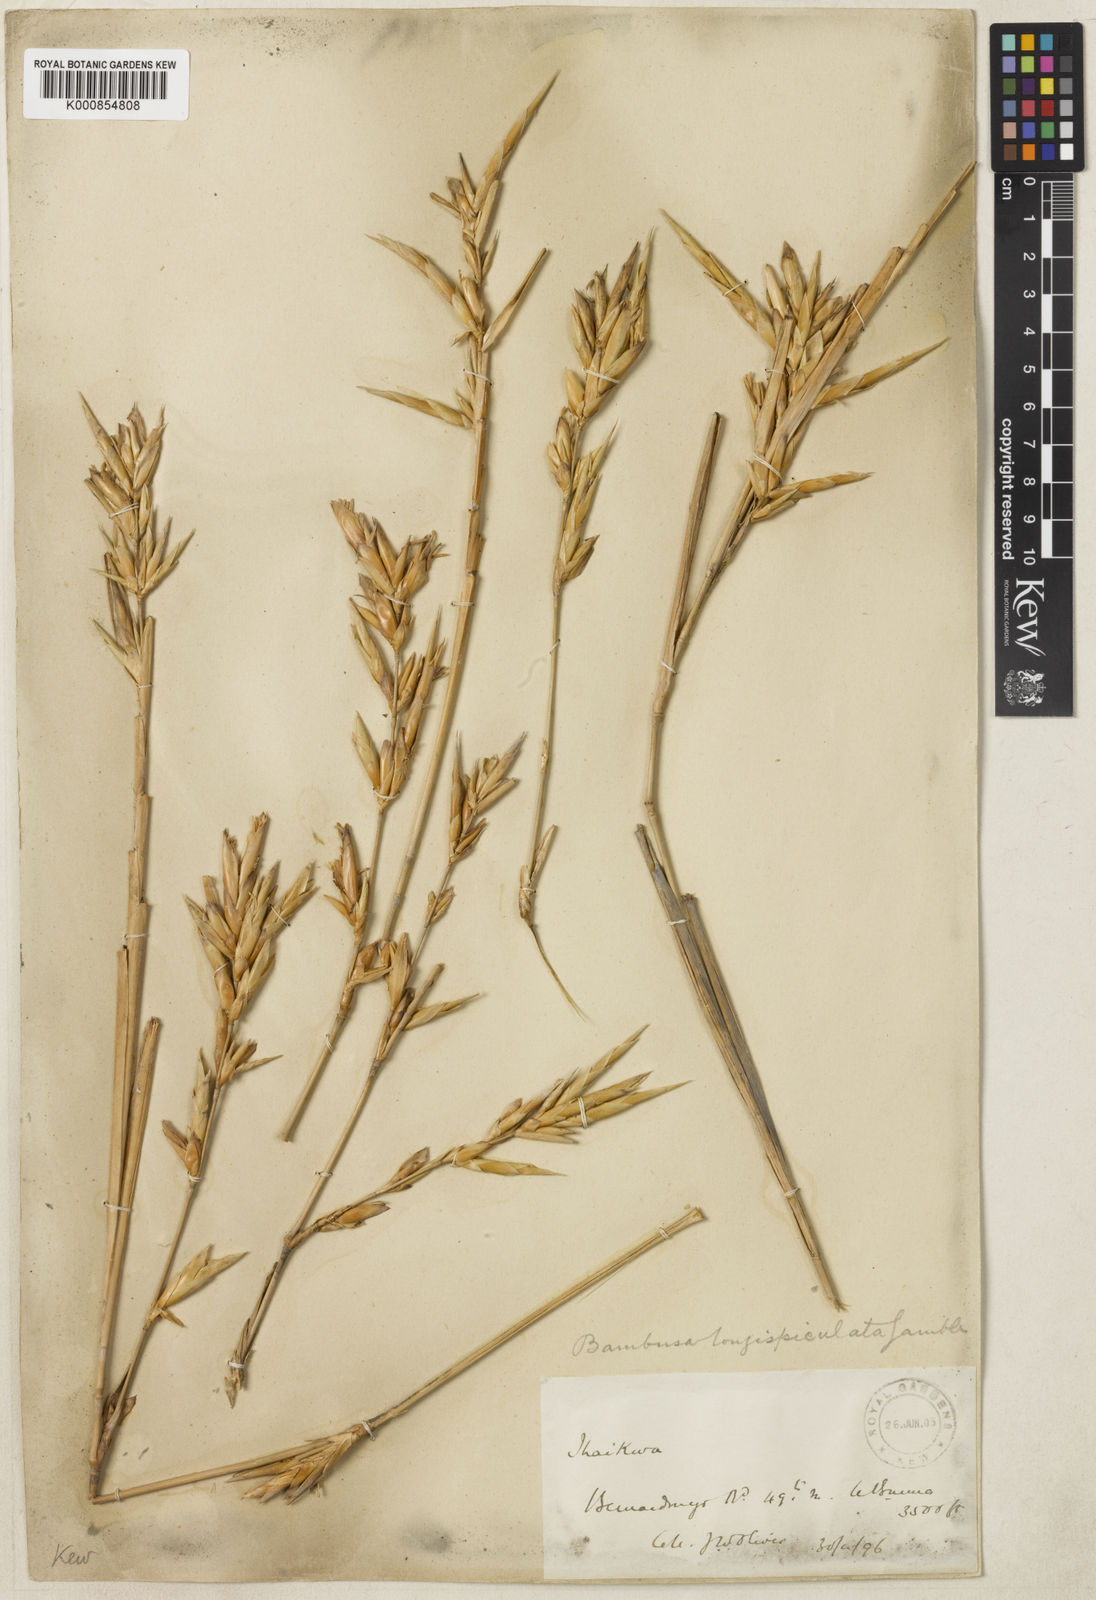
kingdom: Plantae
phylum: Tracheophyta
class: Liliopsida
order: Poales
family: Poaceae
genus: Bambusa
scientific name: Bambusa
